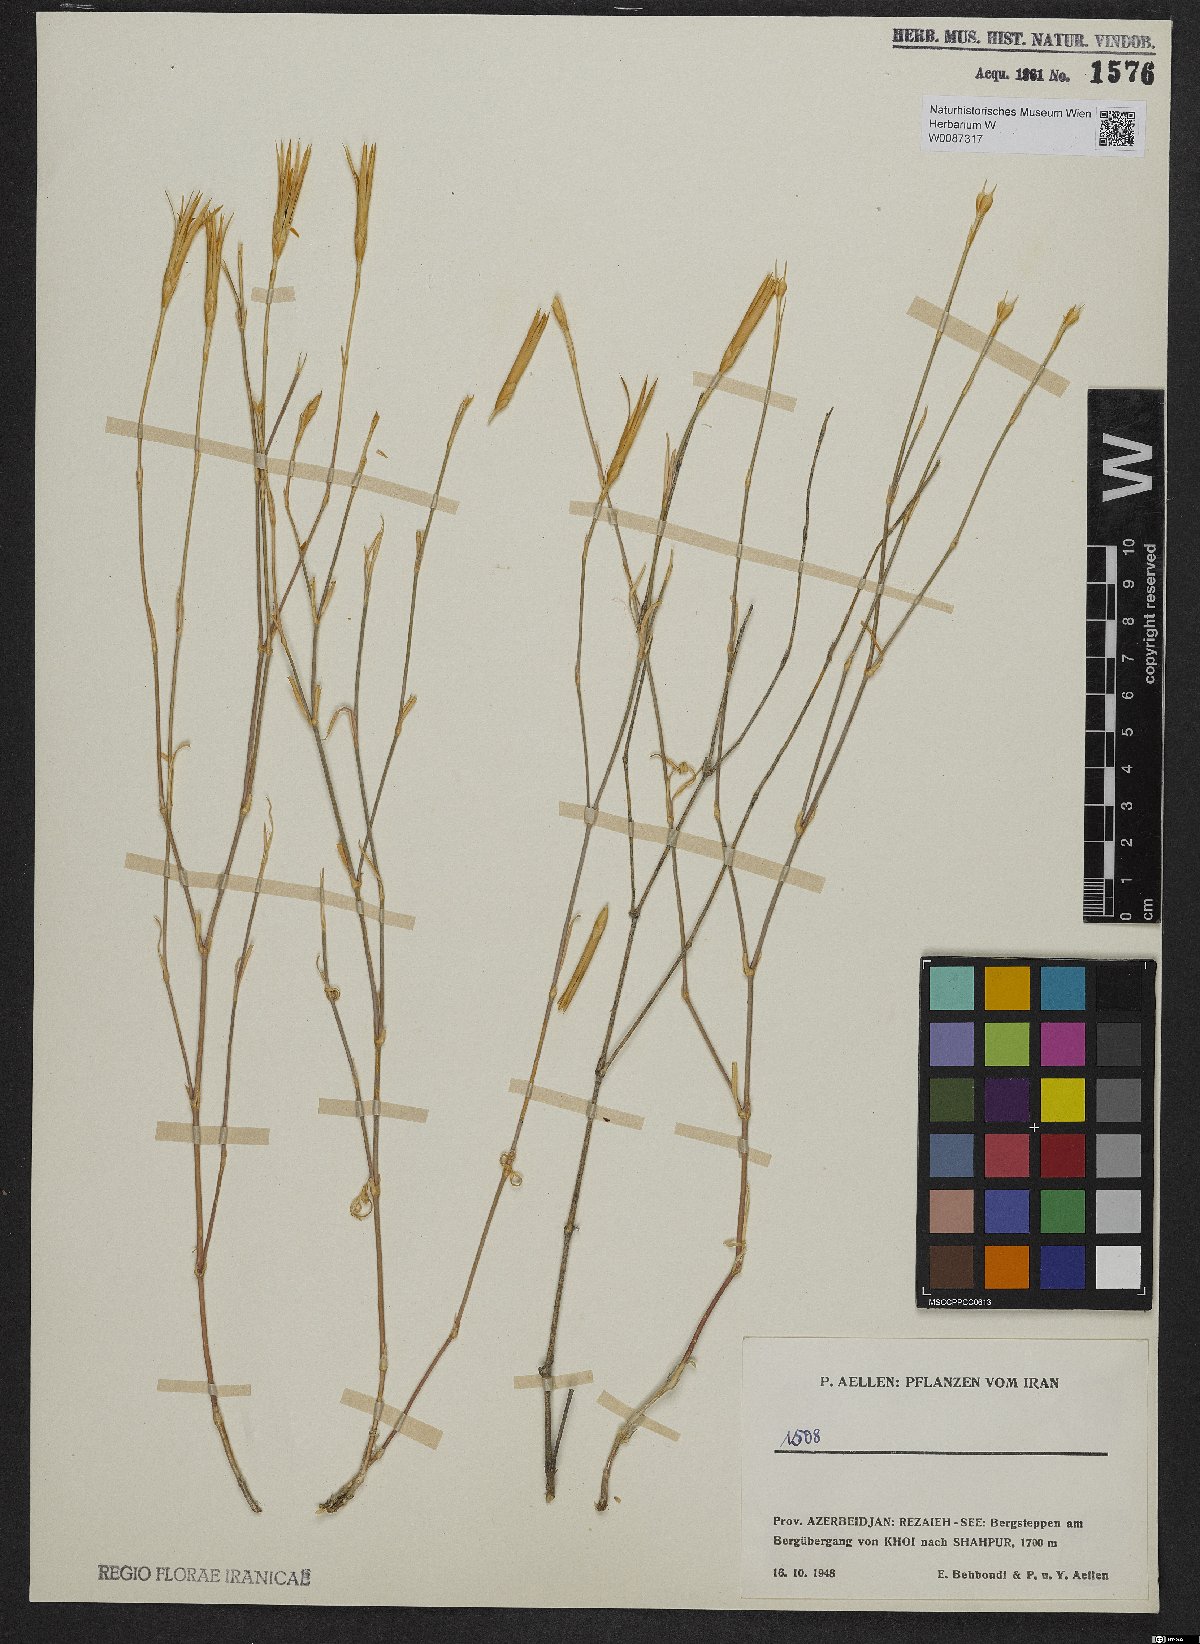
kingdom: Plantae
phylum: Tracheophyta
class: Magnoliopsida
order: Caryophyllales
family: Caryophyllaceae
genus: Dianthus
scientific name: Dianthus
